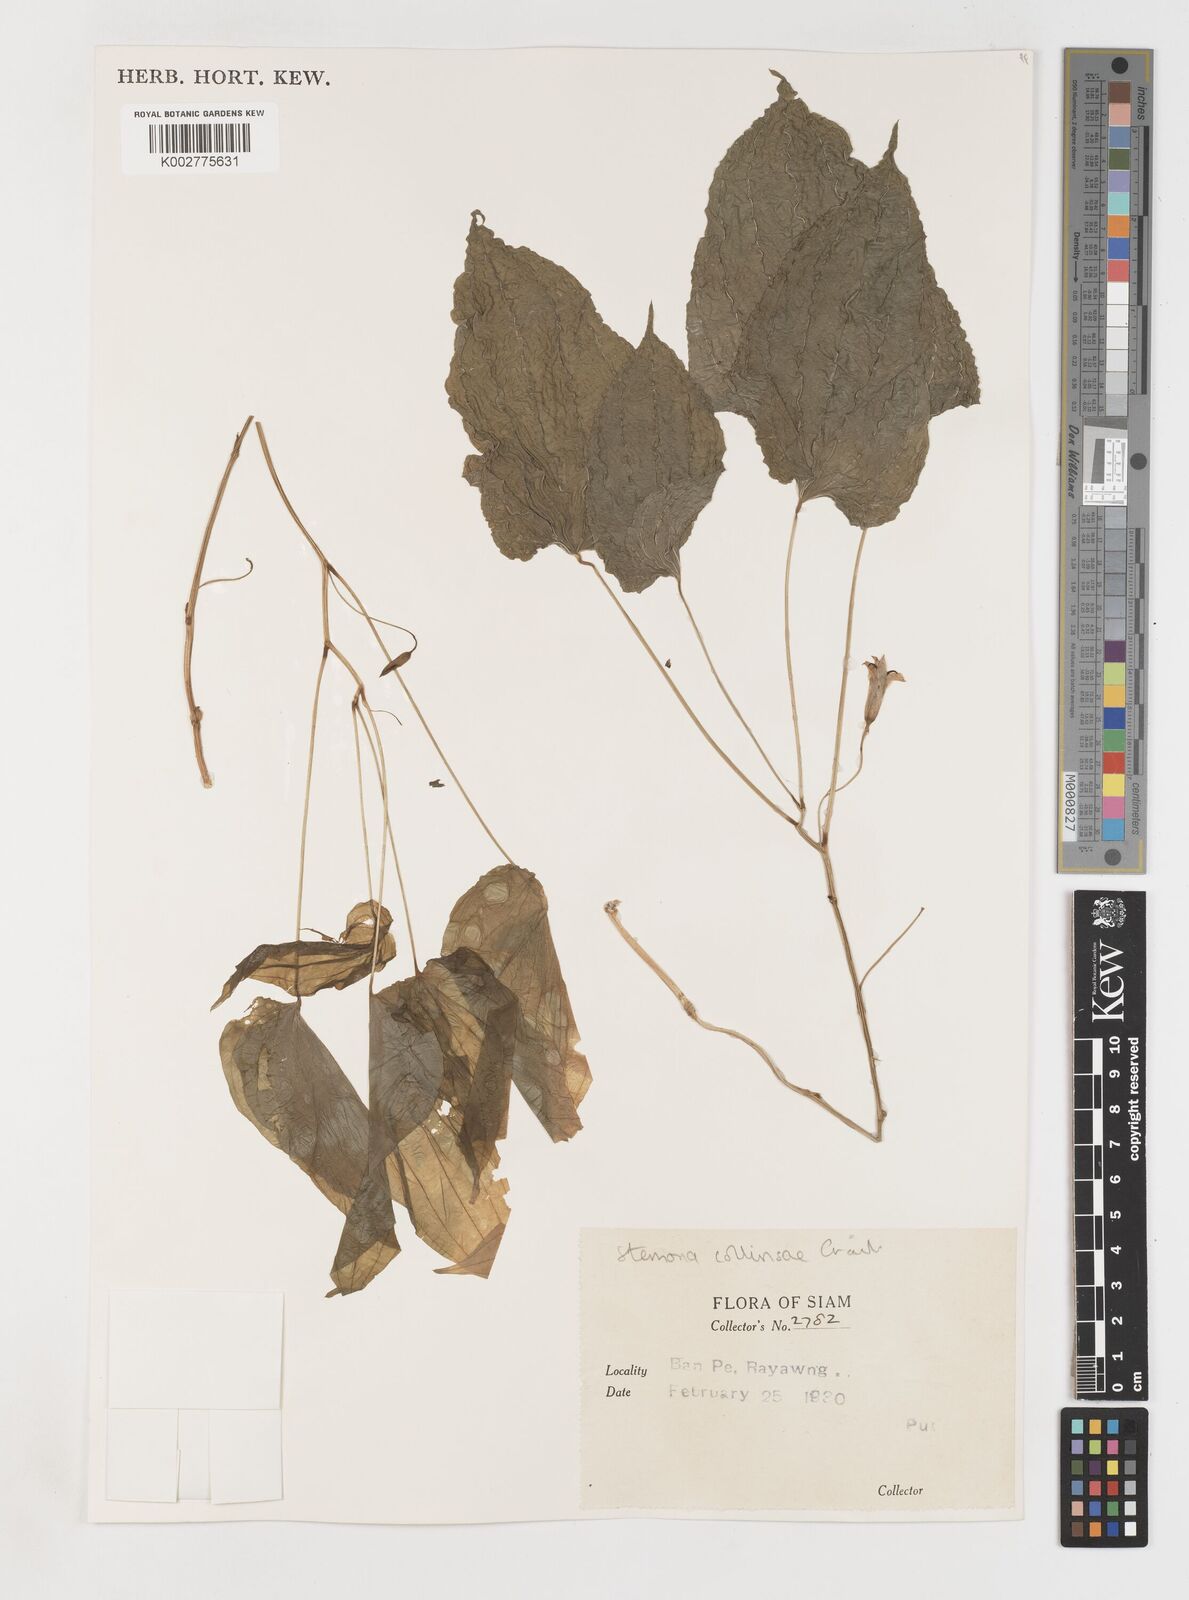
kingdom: Plantae
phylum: Tracheophyta
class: Liliopsida
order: Pandanales
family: Stemonaceae
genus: Stemona
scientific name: Stemona collinsiae
